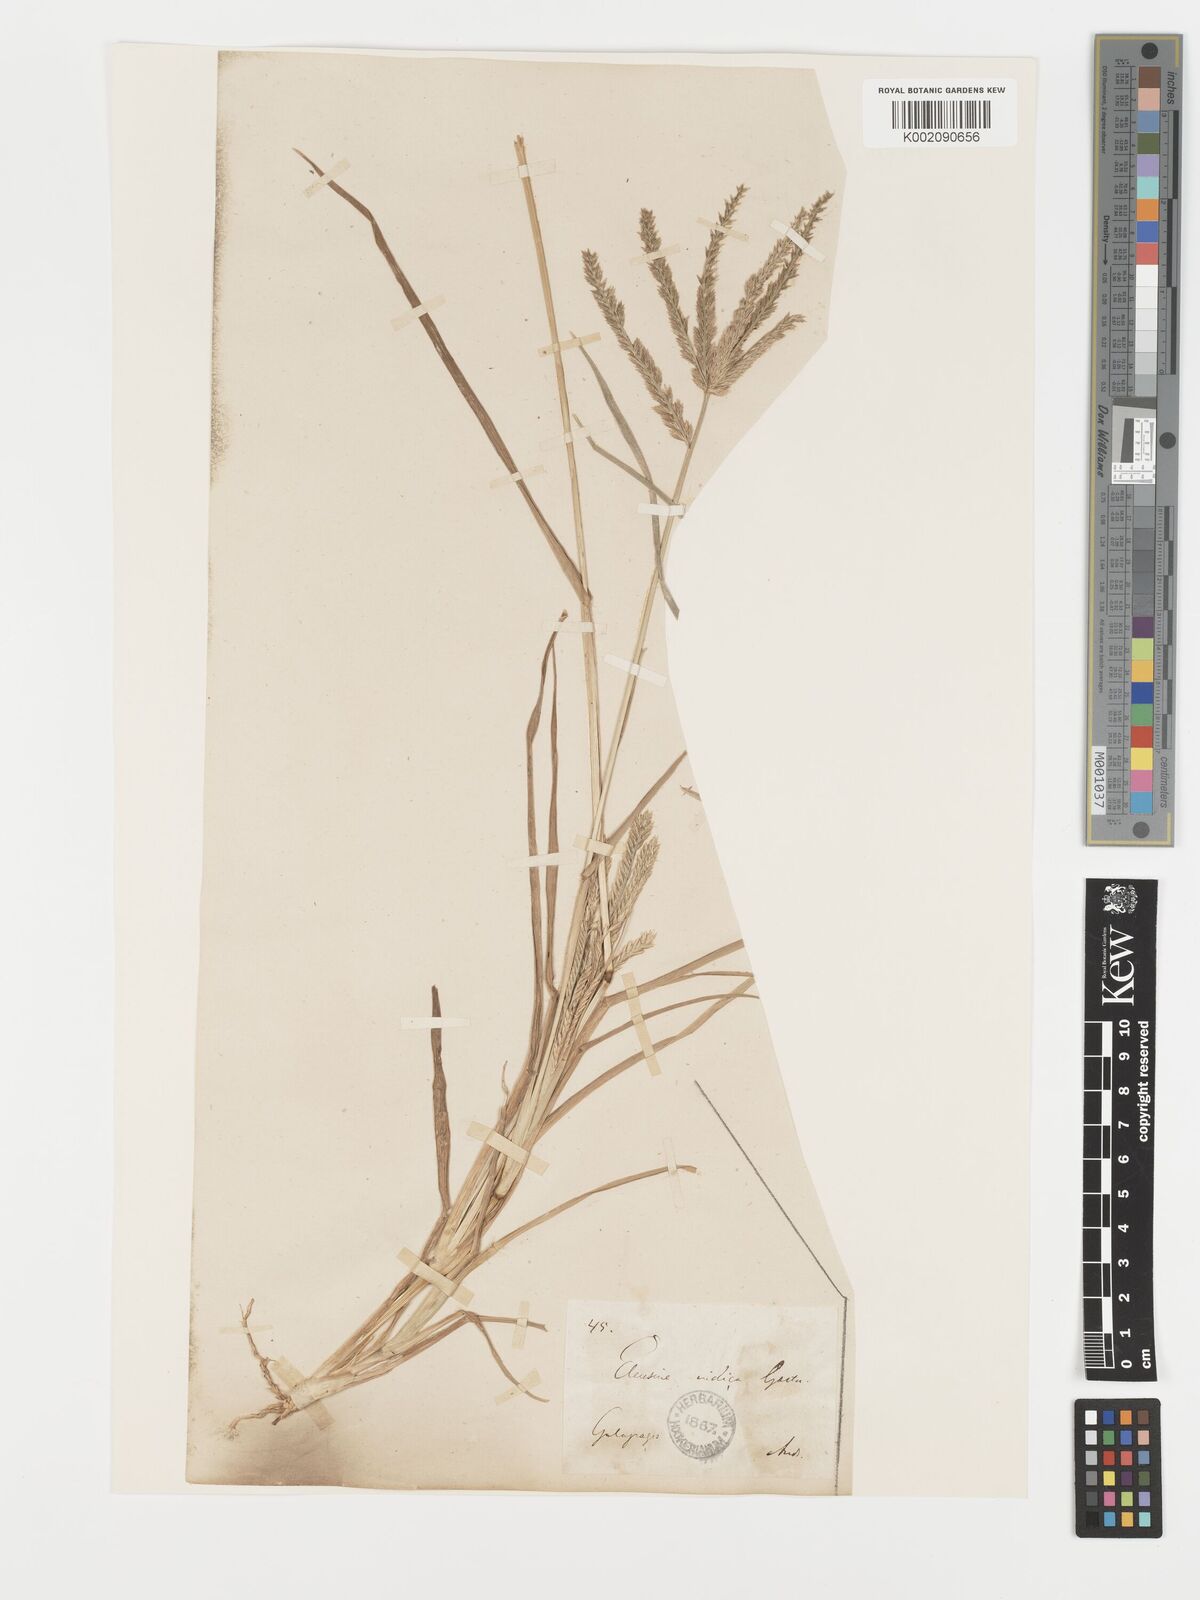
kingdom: Plantae
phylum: Tracheophyta
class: Liliopsida
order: Poales
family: Poaceae
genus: Eleusine
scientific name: Eleusine indica
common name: Yard-grass
